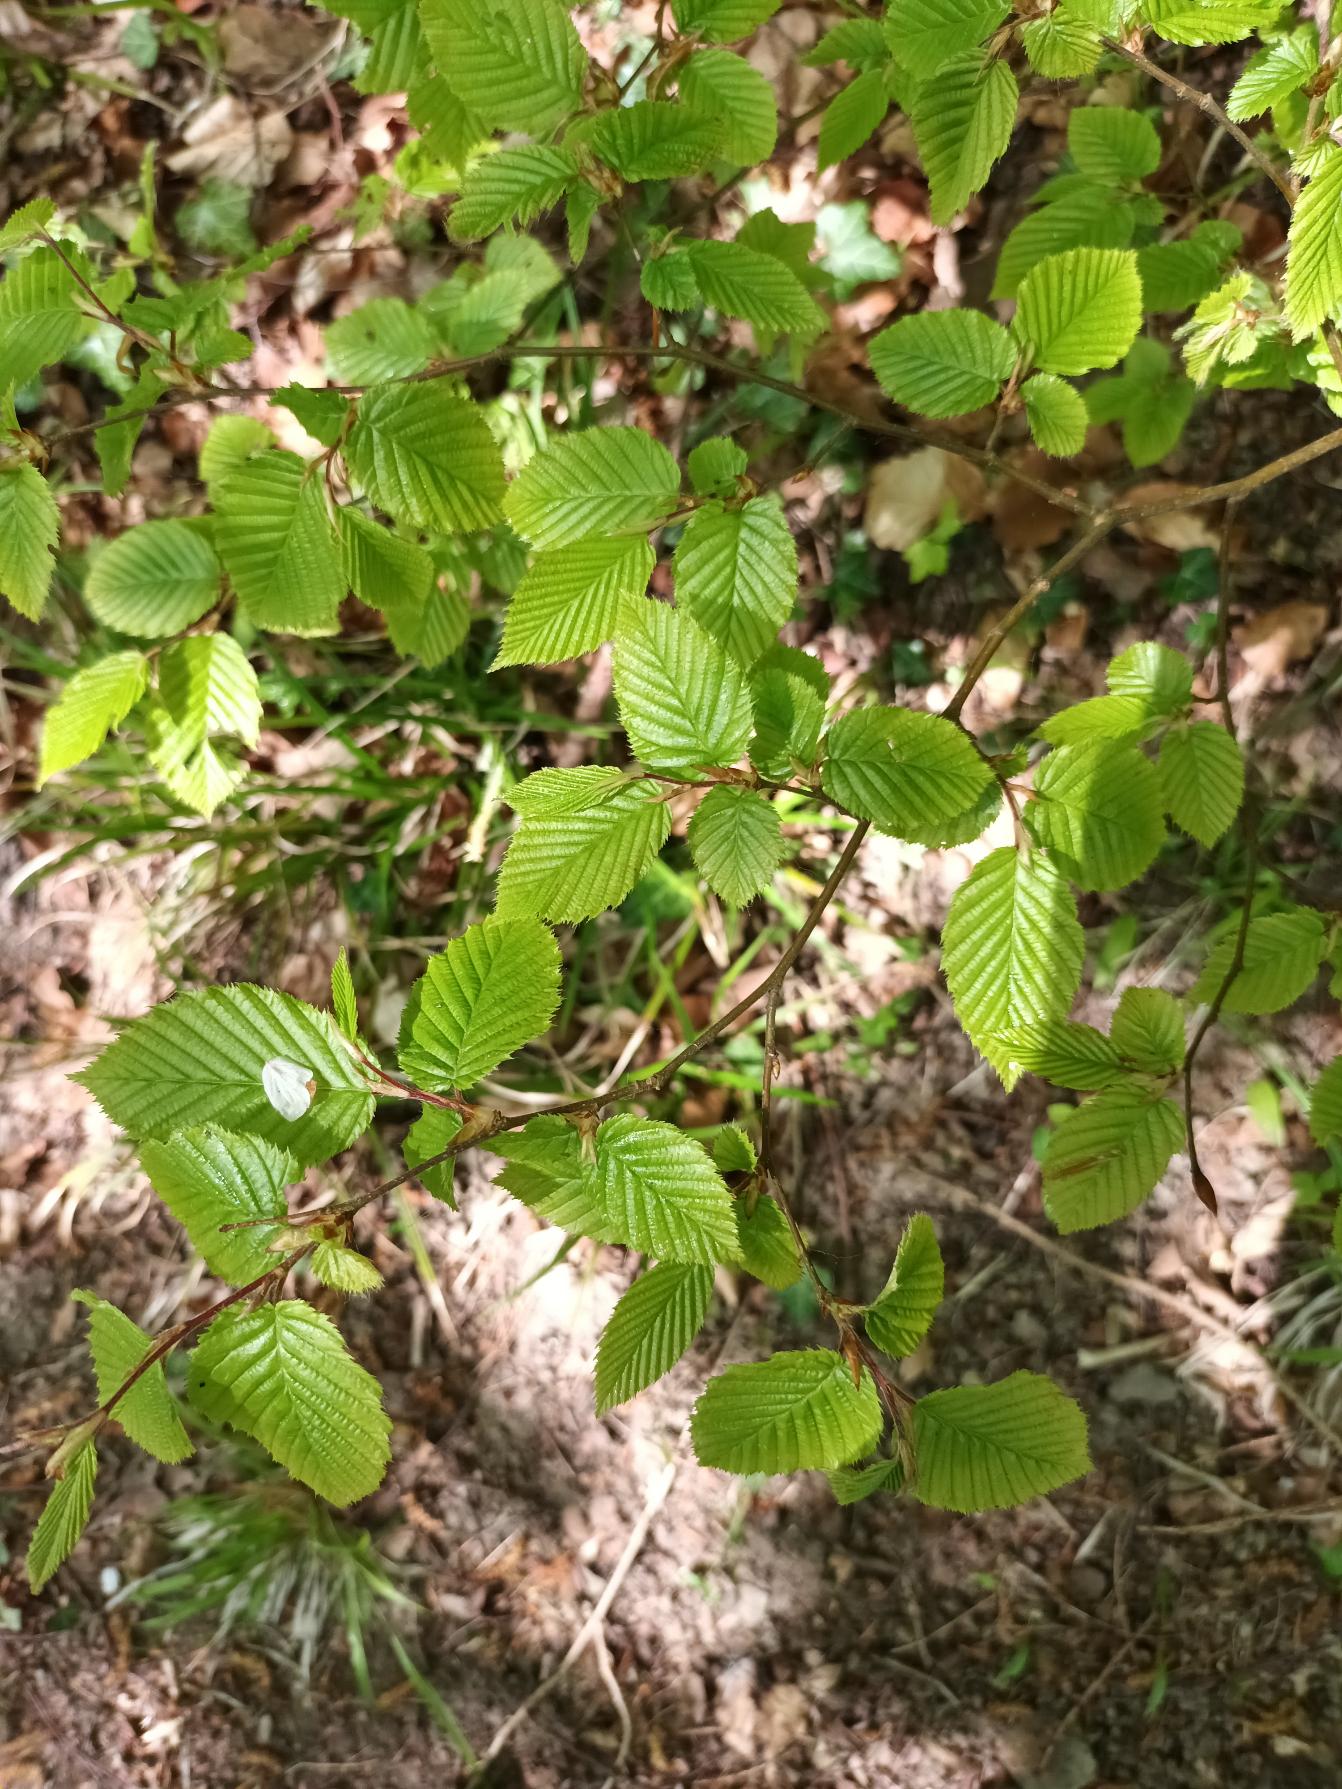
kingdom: Plantae
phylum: Tracheophyta
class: Magnoliopsida
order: Fagales
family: Betulaceae
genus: Carpinus
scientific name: Carpinus betulus
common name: Avnbøg
